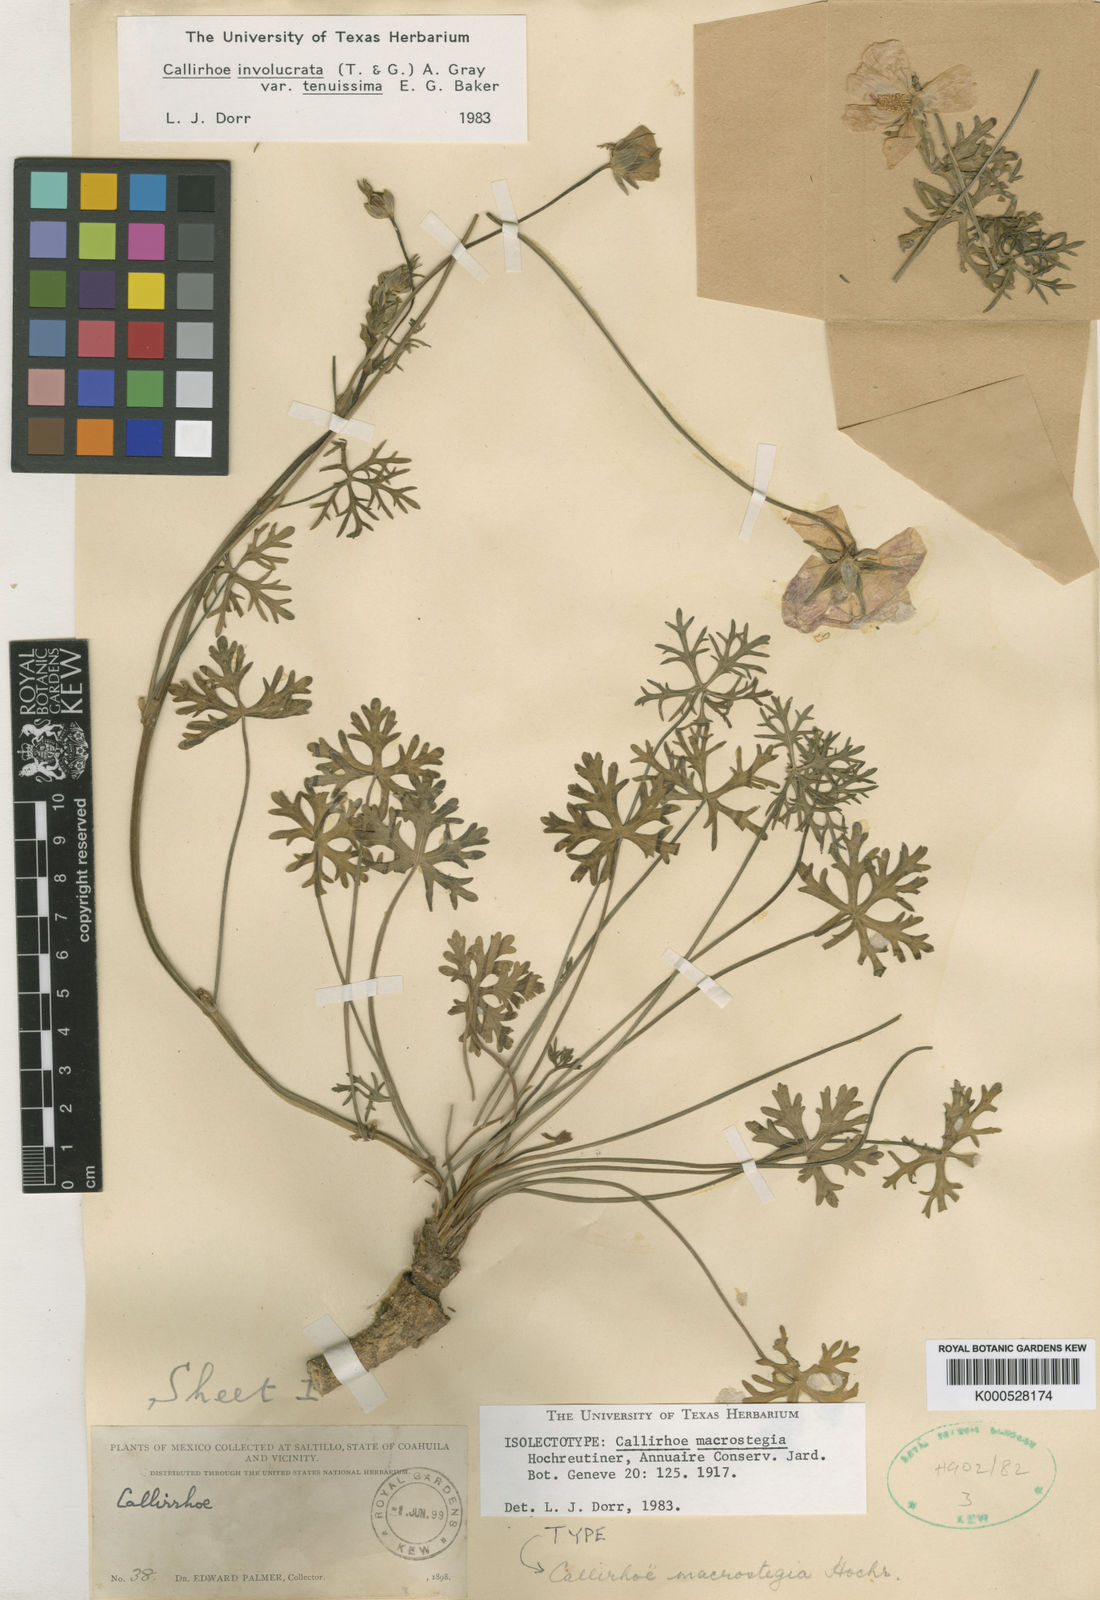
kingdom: Plantae
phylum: Tracheophyta
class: Magnoliopsida
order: Malvales
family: Malvaceae
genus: Callirhoe
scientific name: Callirhoe involucrata
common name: Purple poppy-mallow
